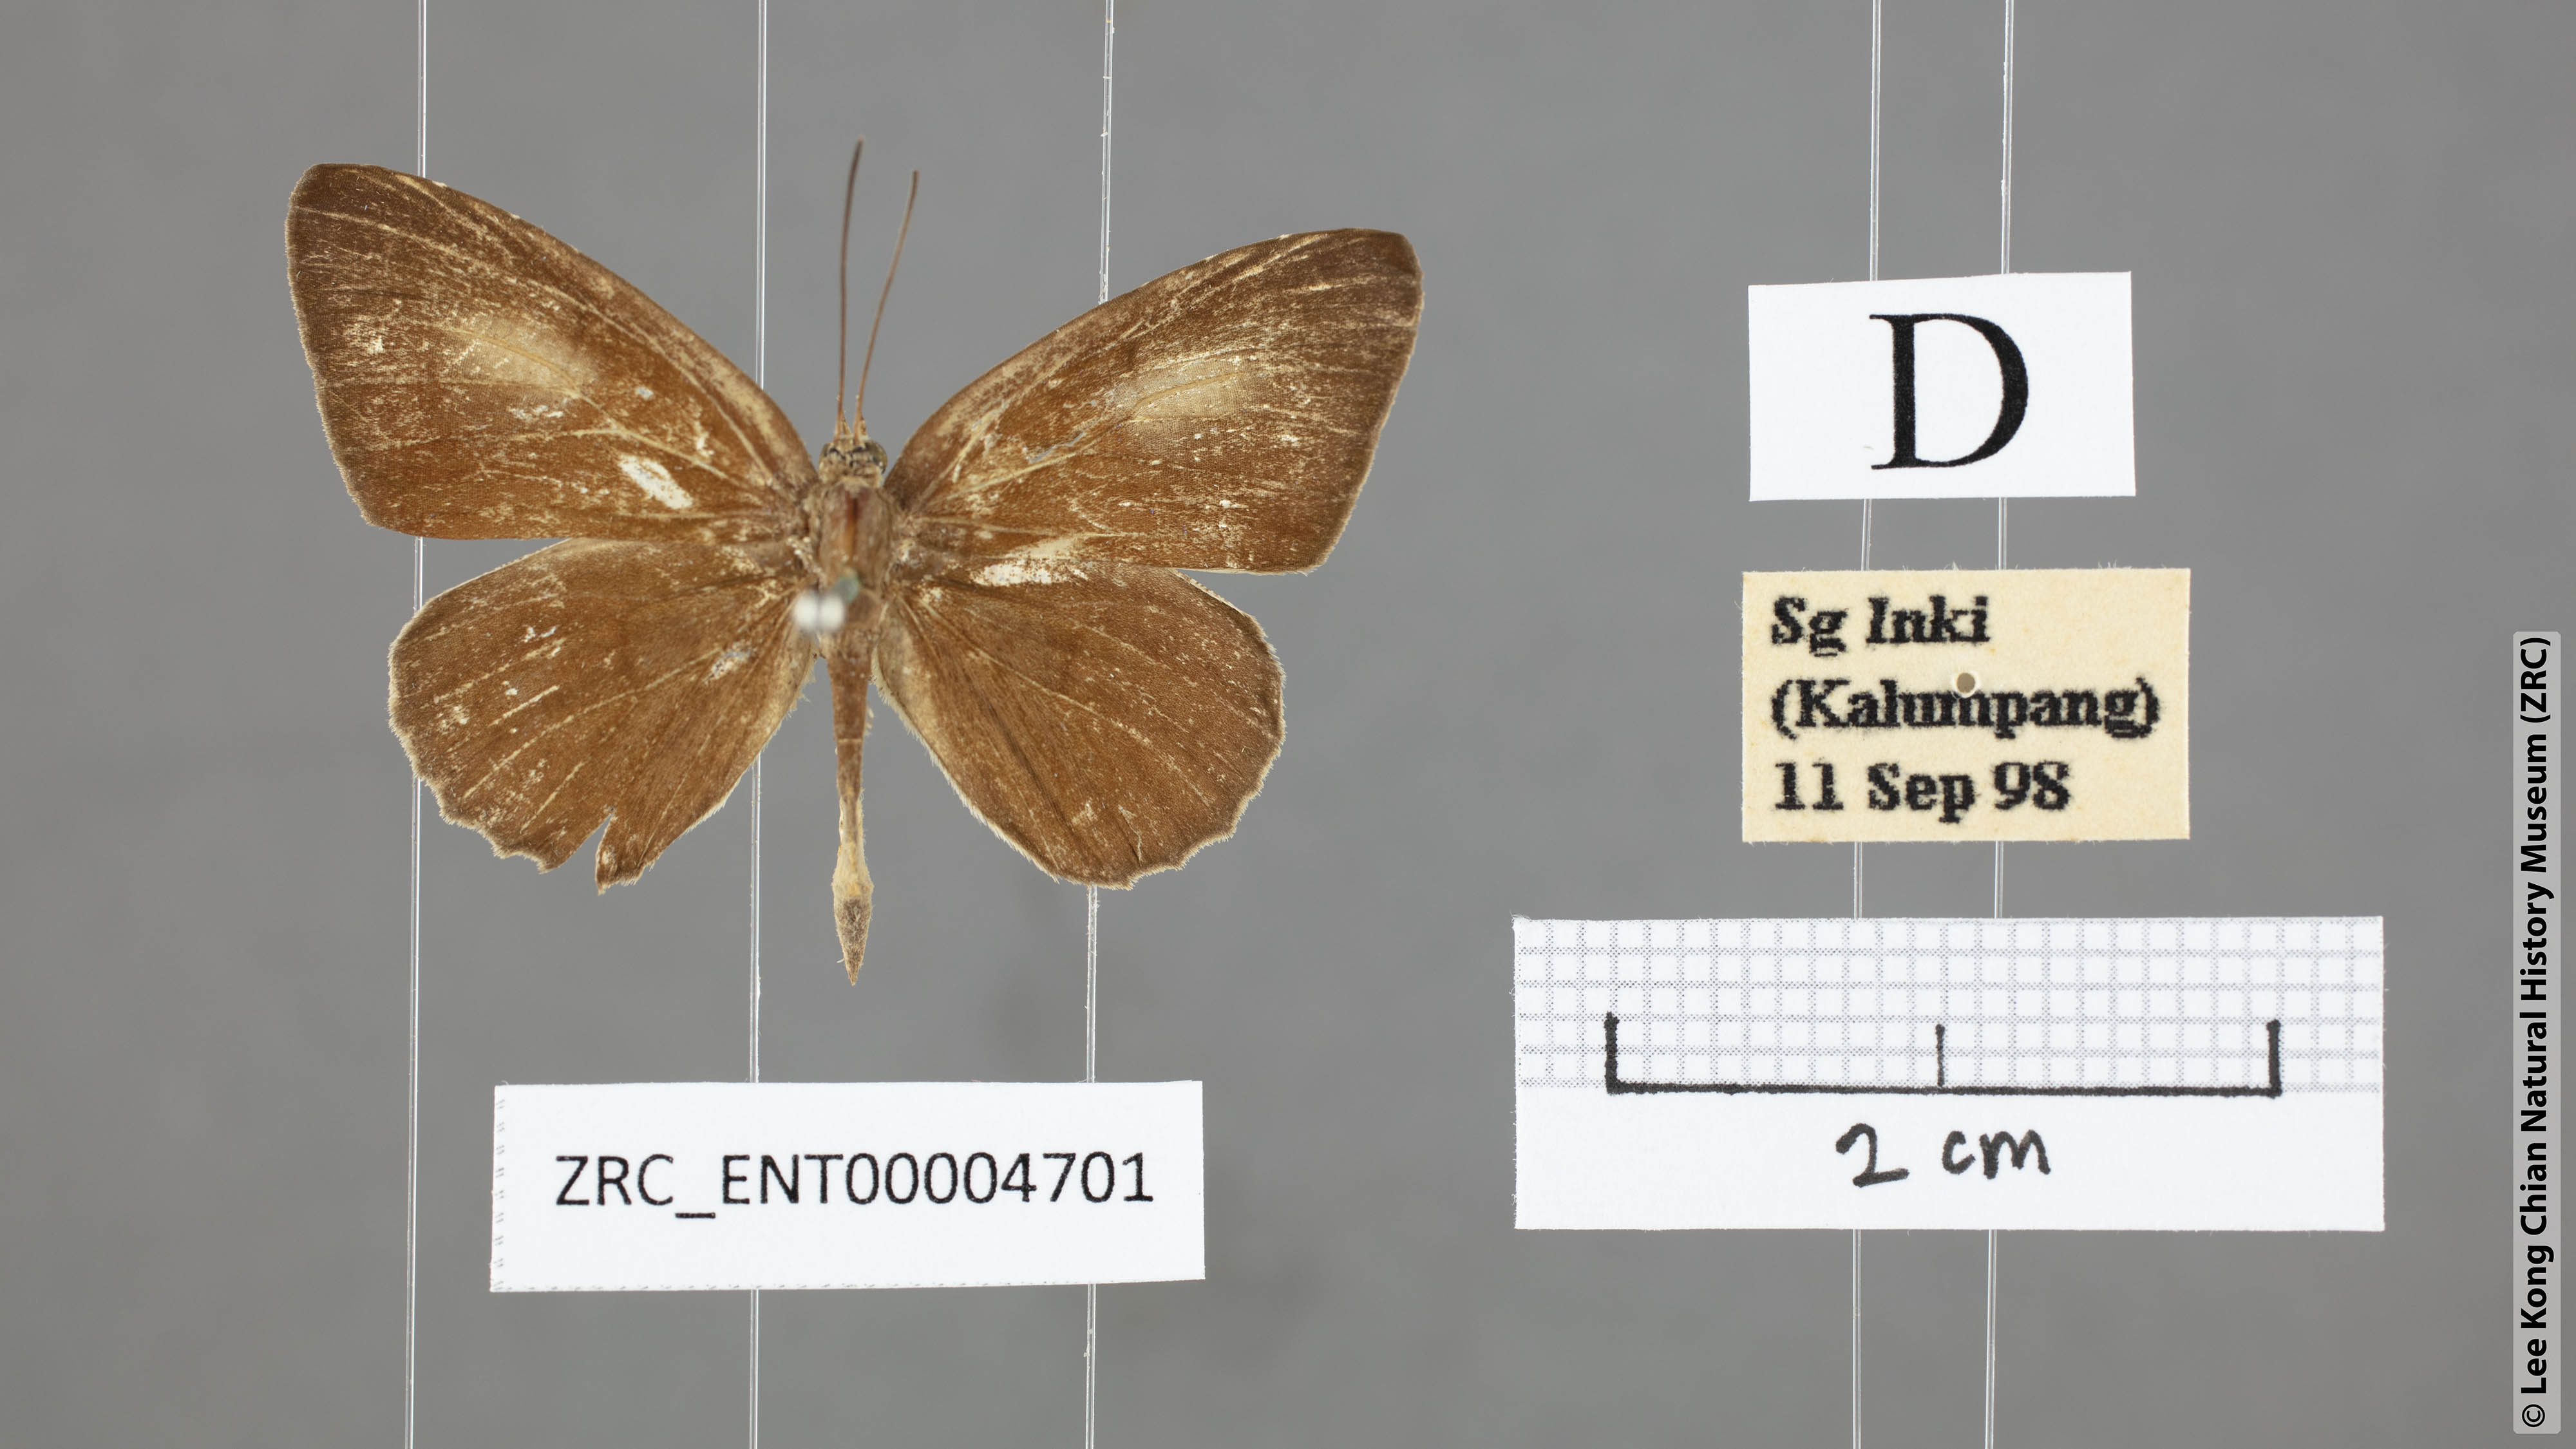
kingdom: Animalia
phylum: Arthropoda
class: Insecta
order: Lepidoptera
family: Lycaenidae
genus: Allotinus
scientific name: Allotinus strigatus
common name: Small malayan darkie
